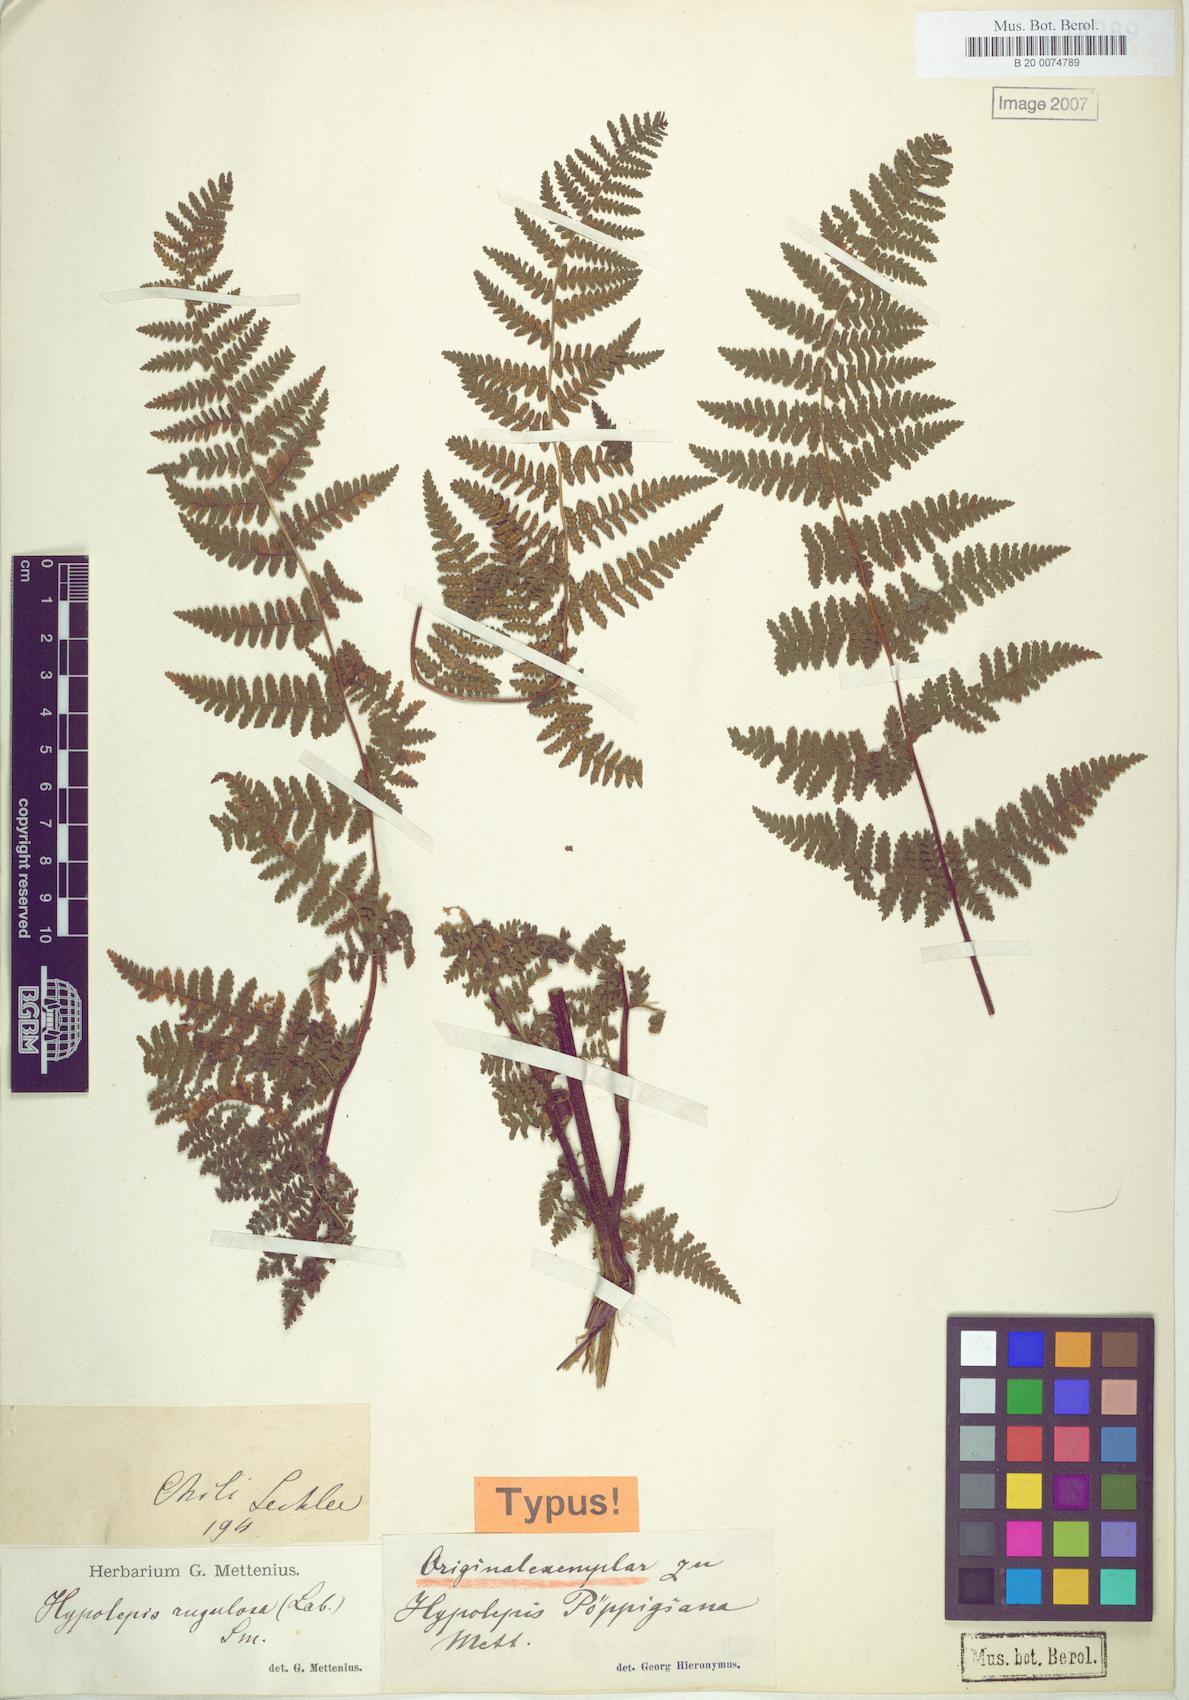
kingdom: Plantae
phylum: Tracheophyta
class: Polypodiopsida
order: Polypodiales
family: Dennstaedtiaceae
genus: Hypolepis
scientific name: Hypolepis rugosula
